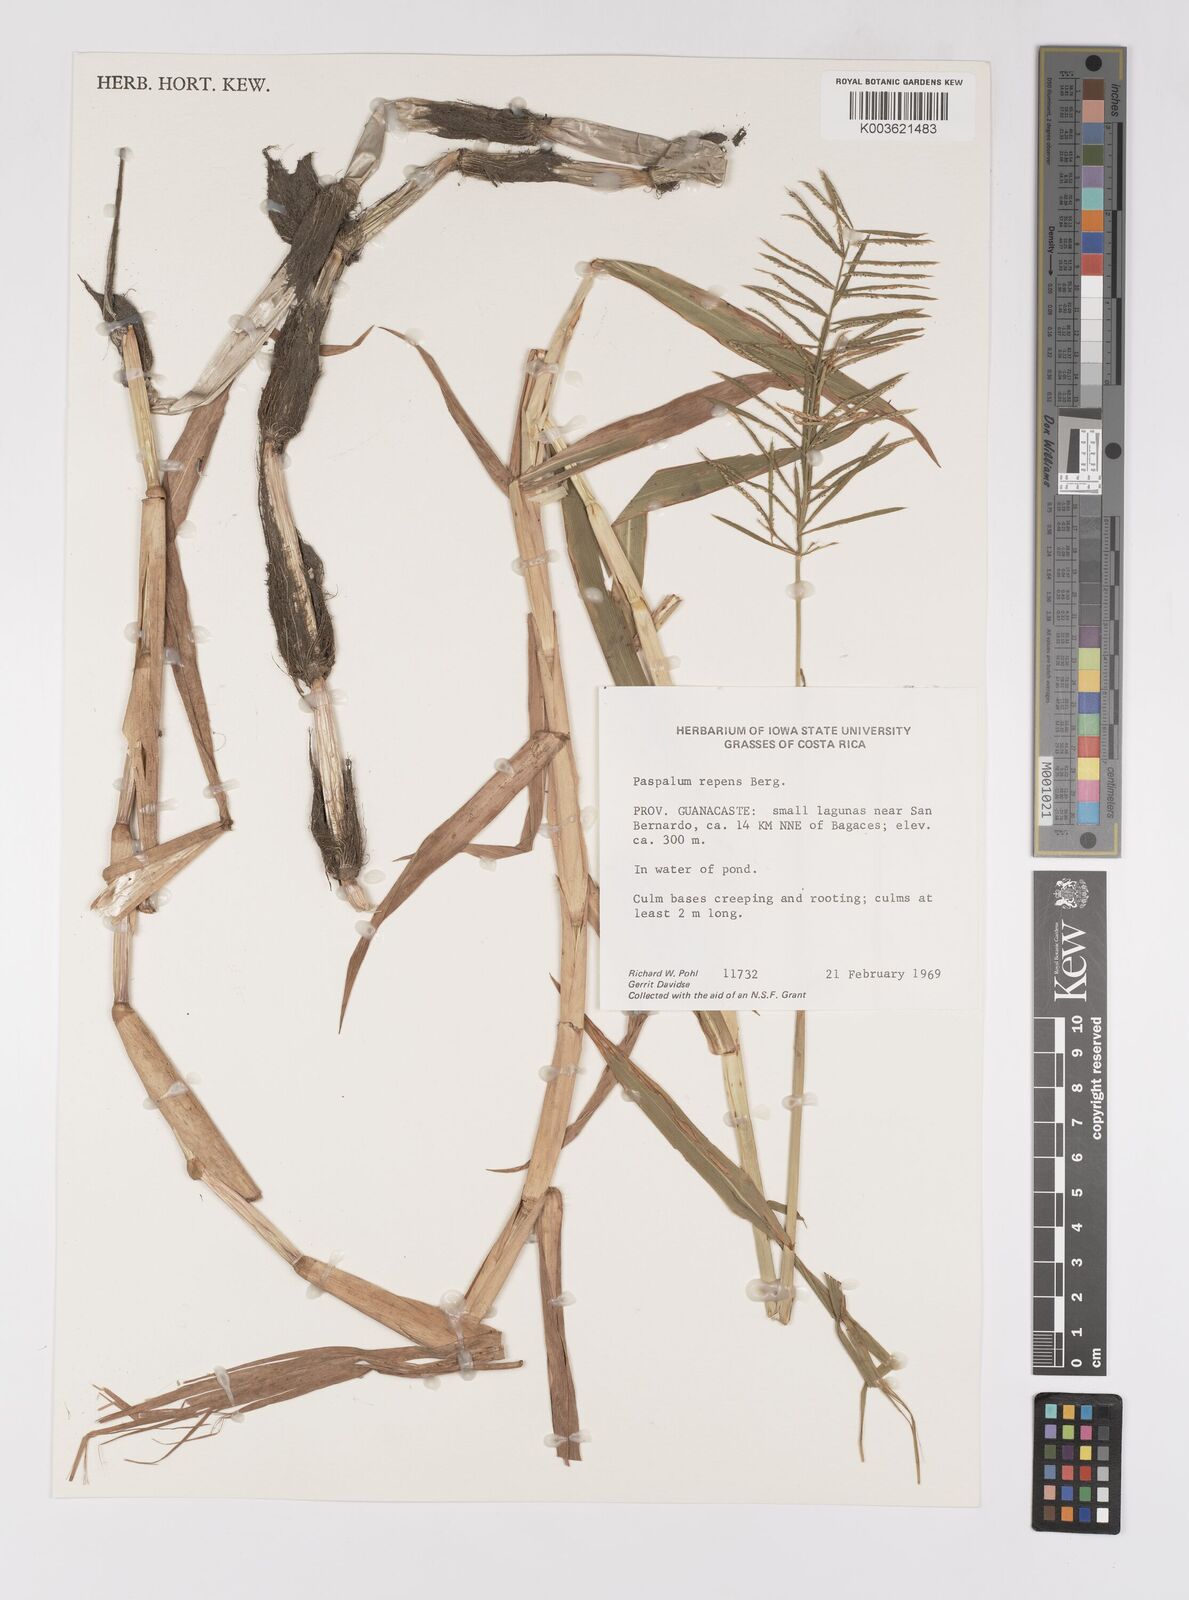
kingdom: Plantae
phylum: Tracheophyta
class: Liliopsida
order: Poales
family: Poaceae
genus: Paspalum
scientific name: Paspalum repens
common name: Water paspalum
